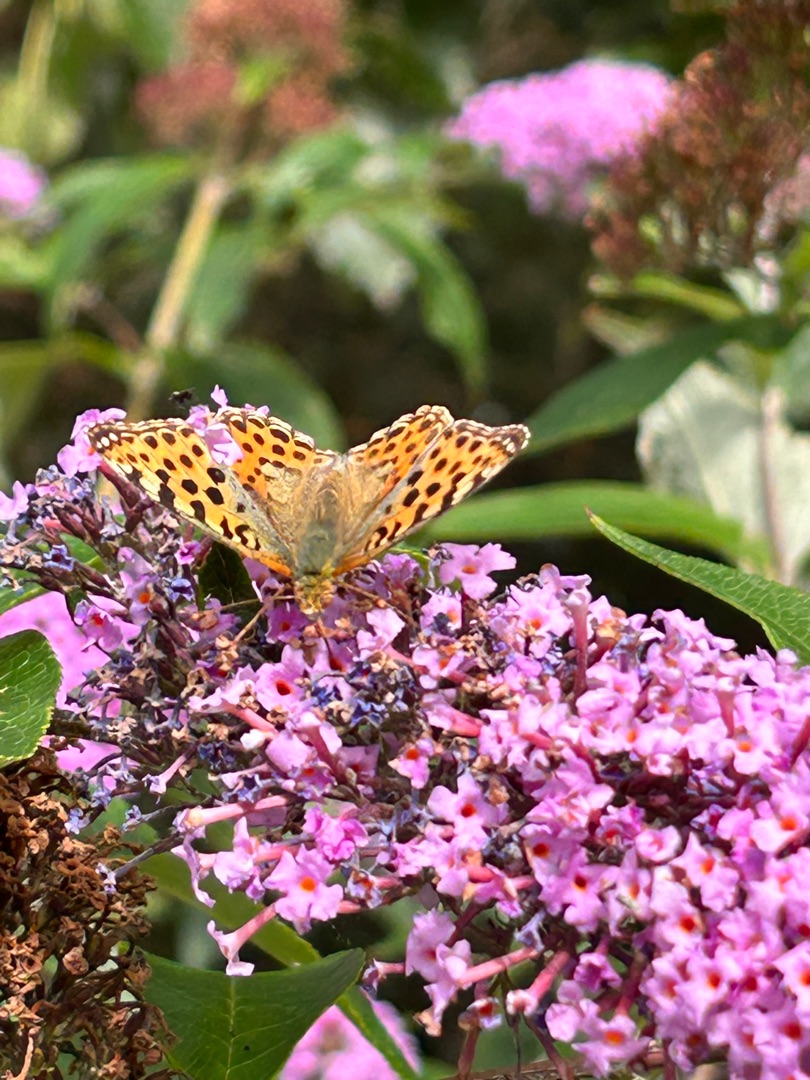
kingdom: Animalia
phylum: Arthropoda
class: Insecta
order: Lepidoptera
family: Nymphalidae
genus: Issoria
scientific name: Issoria lathonia
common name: Storplettet perlemorsommerfugl
